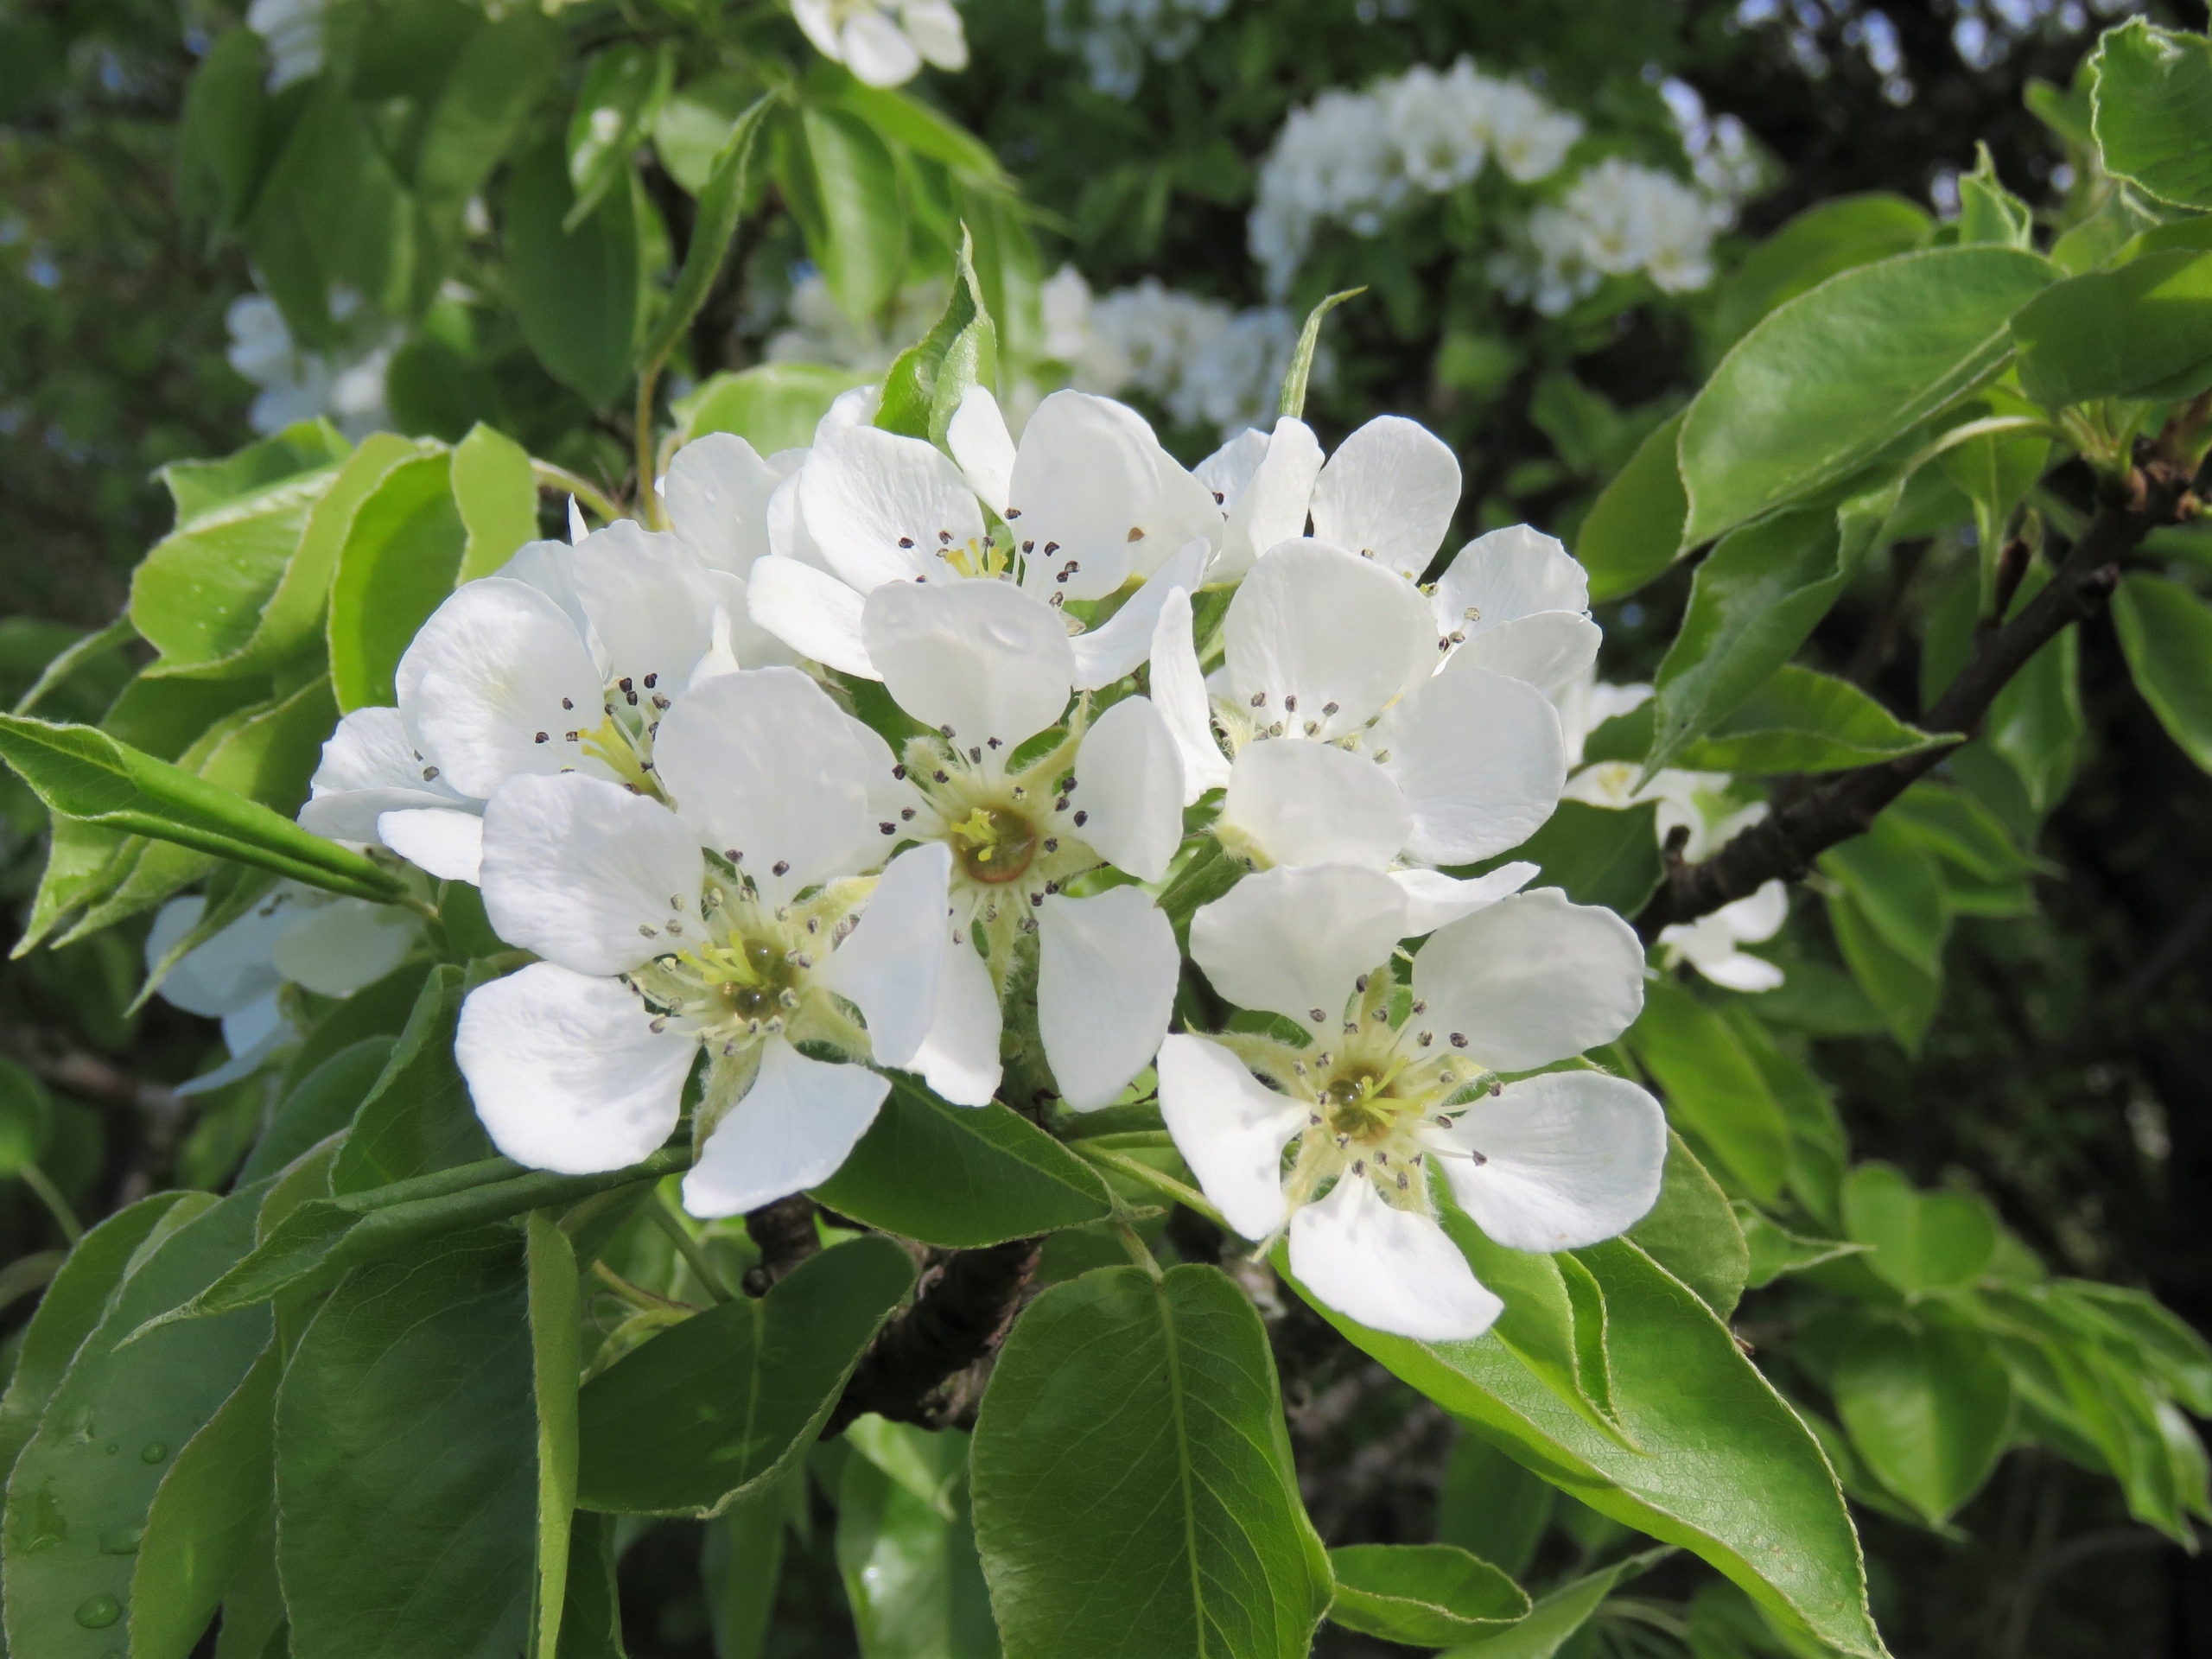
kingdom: Plantae
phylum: Tracheophyta
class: Magnoliopsida
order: Rosales
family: Rosaceae
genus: Pyrus
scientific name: Pyrus communis
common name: Pære
